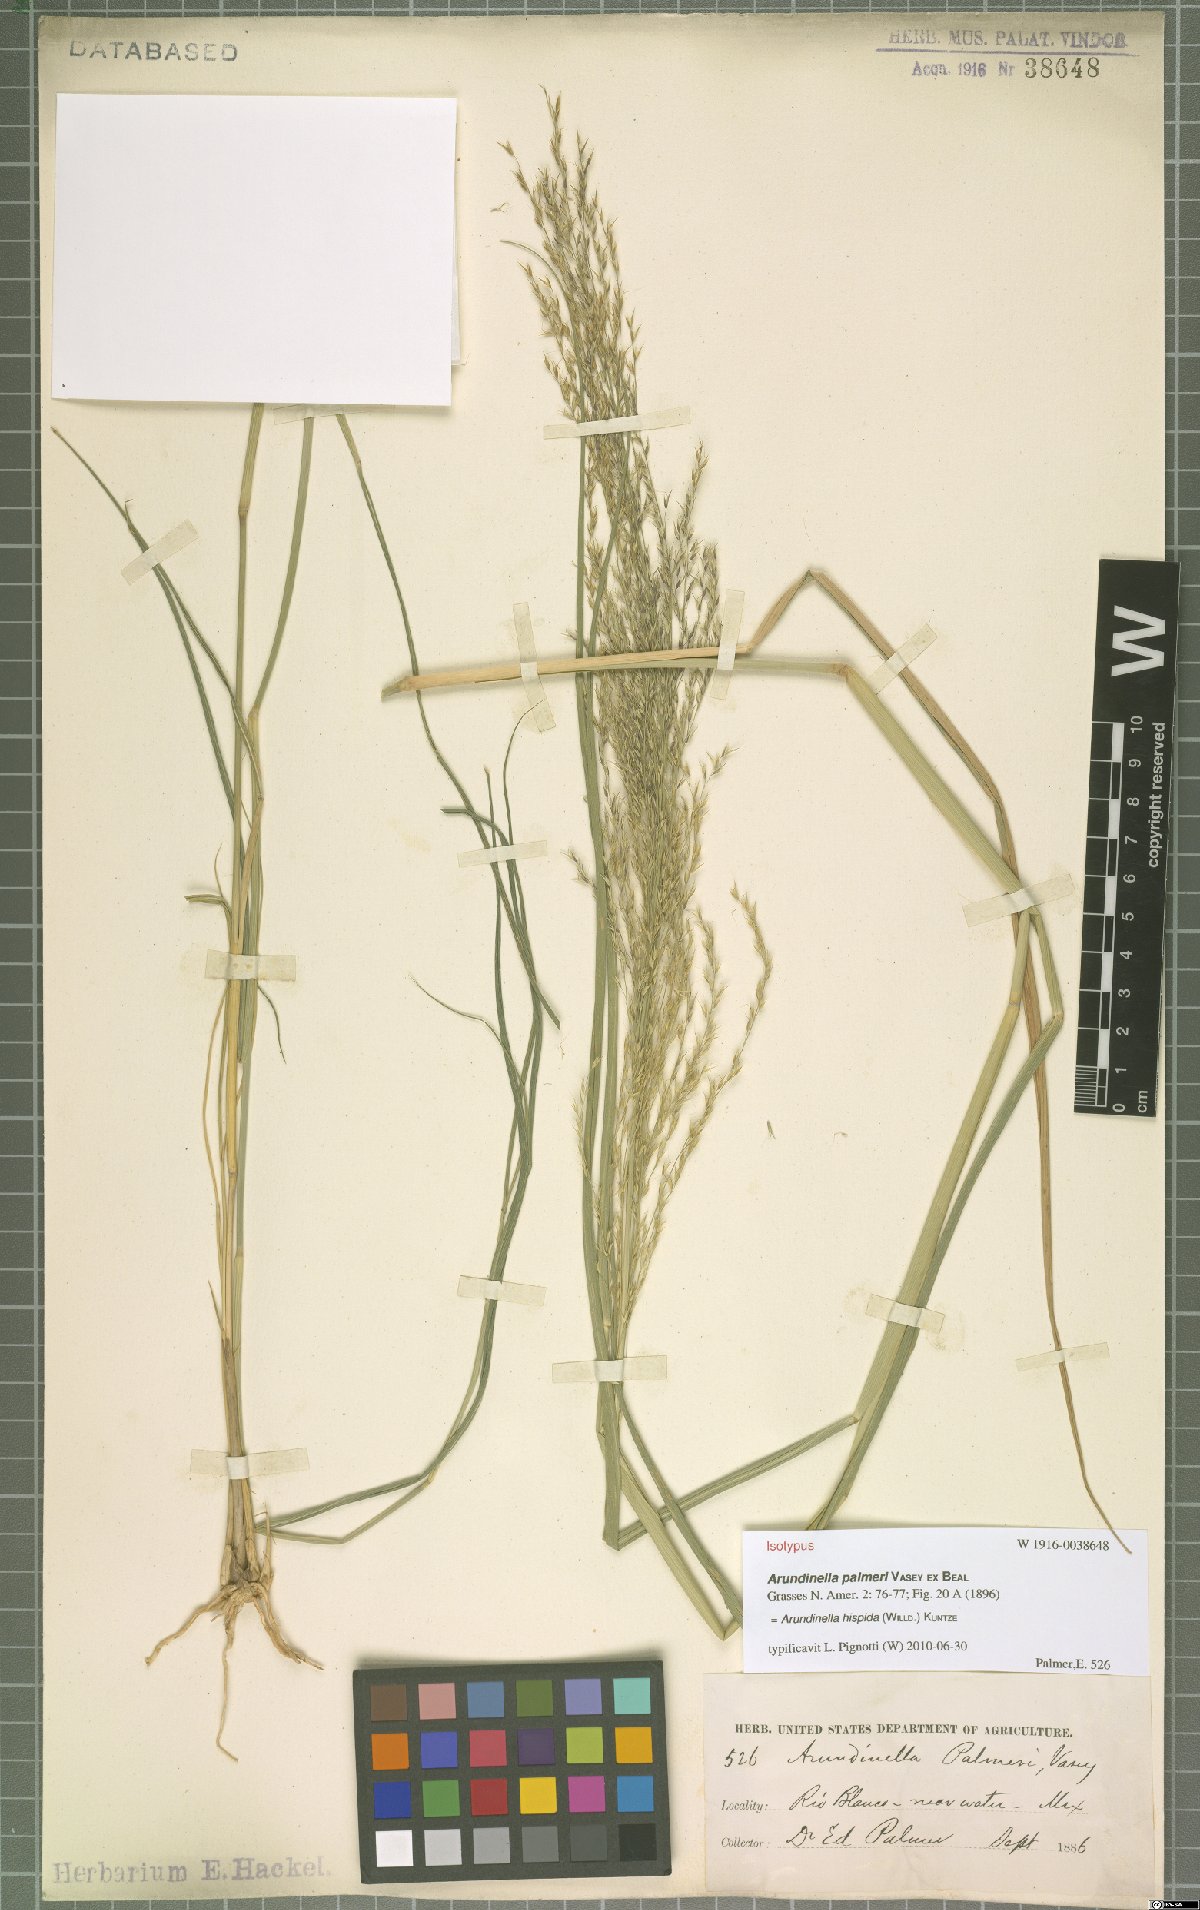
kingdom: Plantae
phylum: Tracheophyta
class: Liliopsida
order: Poales
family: Poaceae
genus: Arundinella
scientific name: Arundinella hispida
